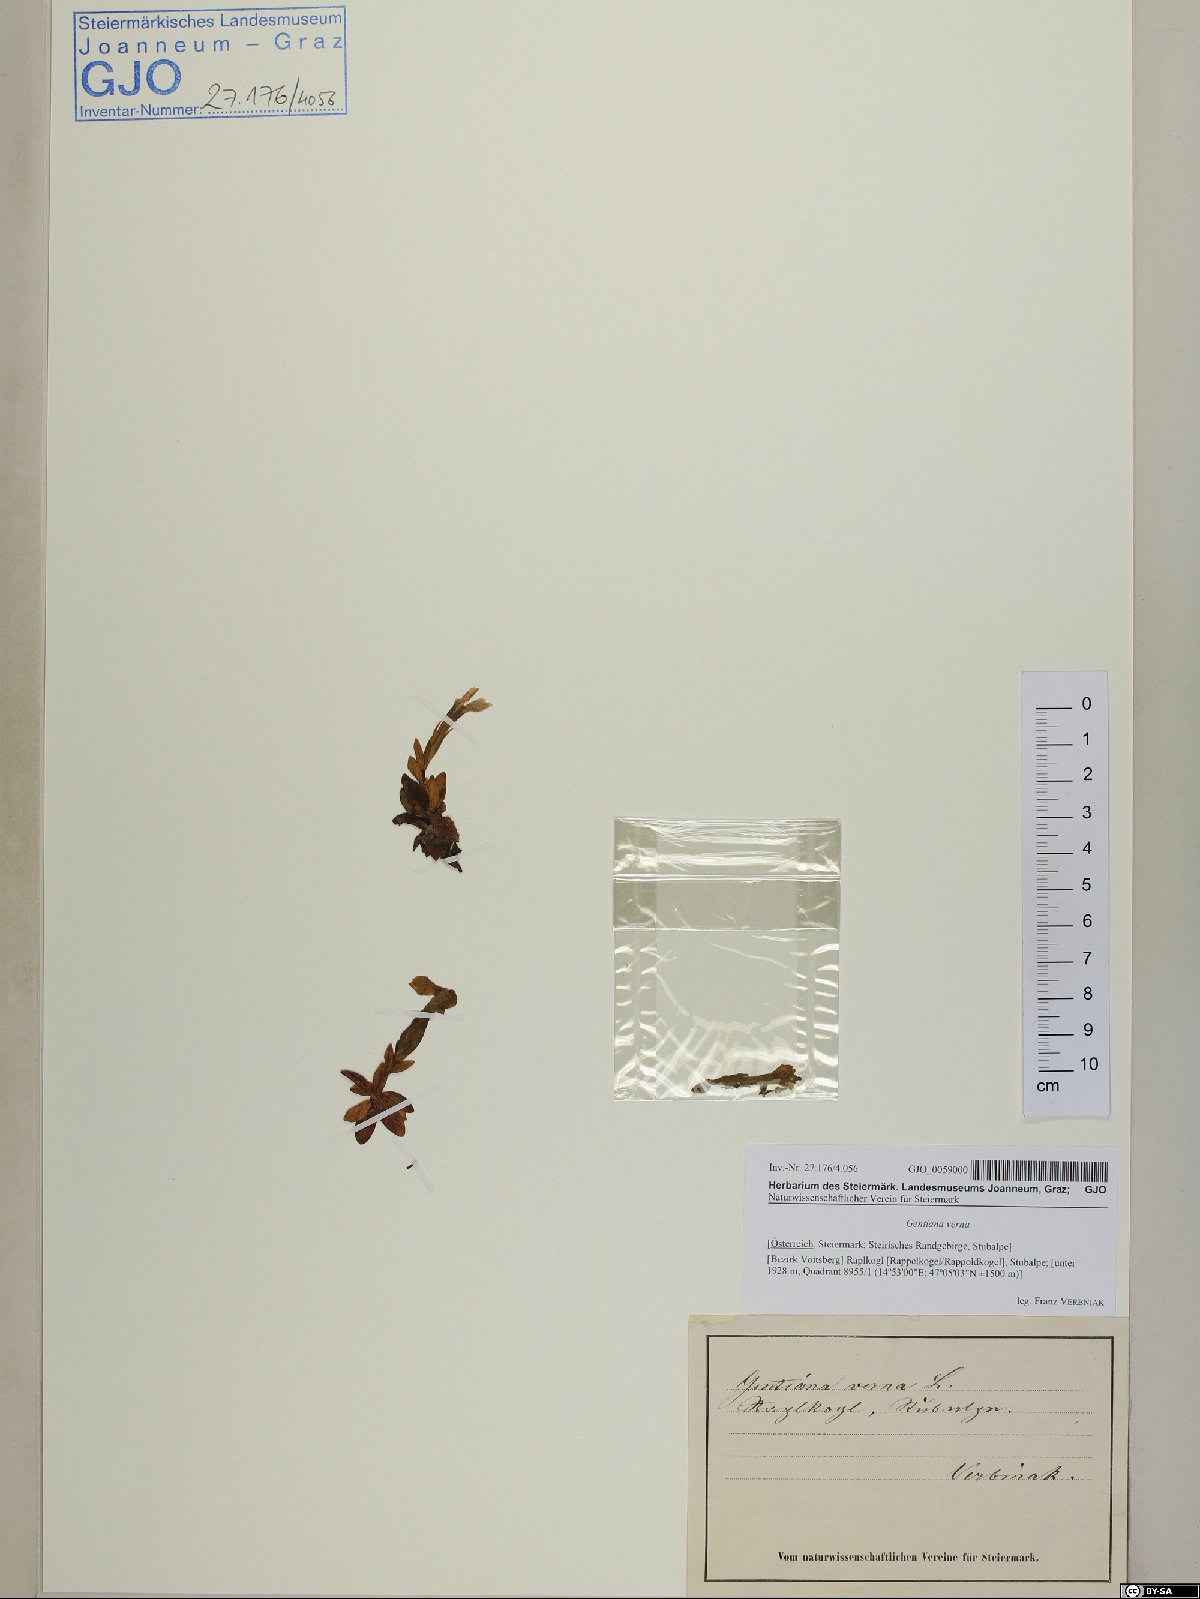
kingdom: Plantae
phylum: Tracheophyta
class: Magnoliopsida
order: Gentianales
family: Gentianaceae
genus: Gentiana
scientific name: Gentiana verna
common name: Spring gentian
